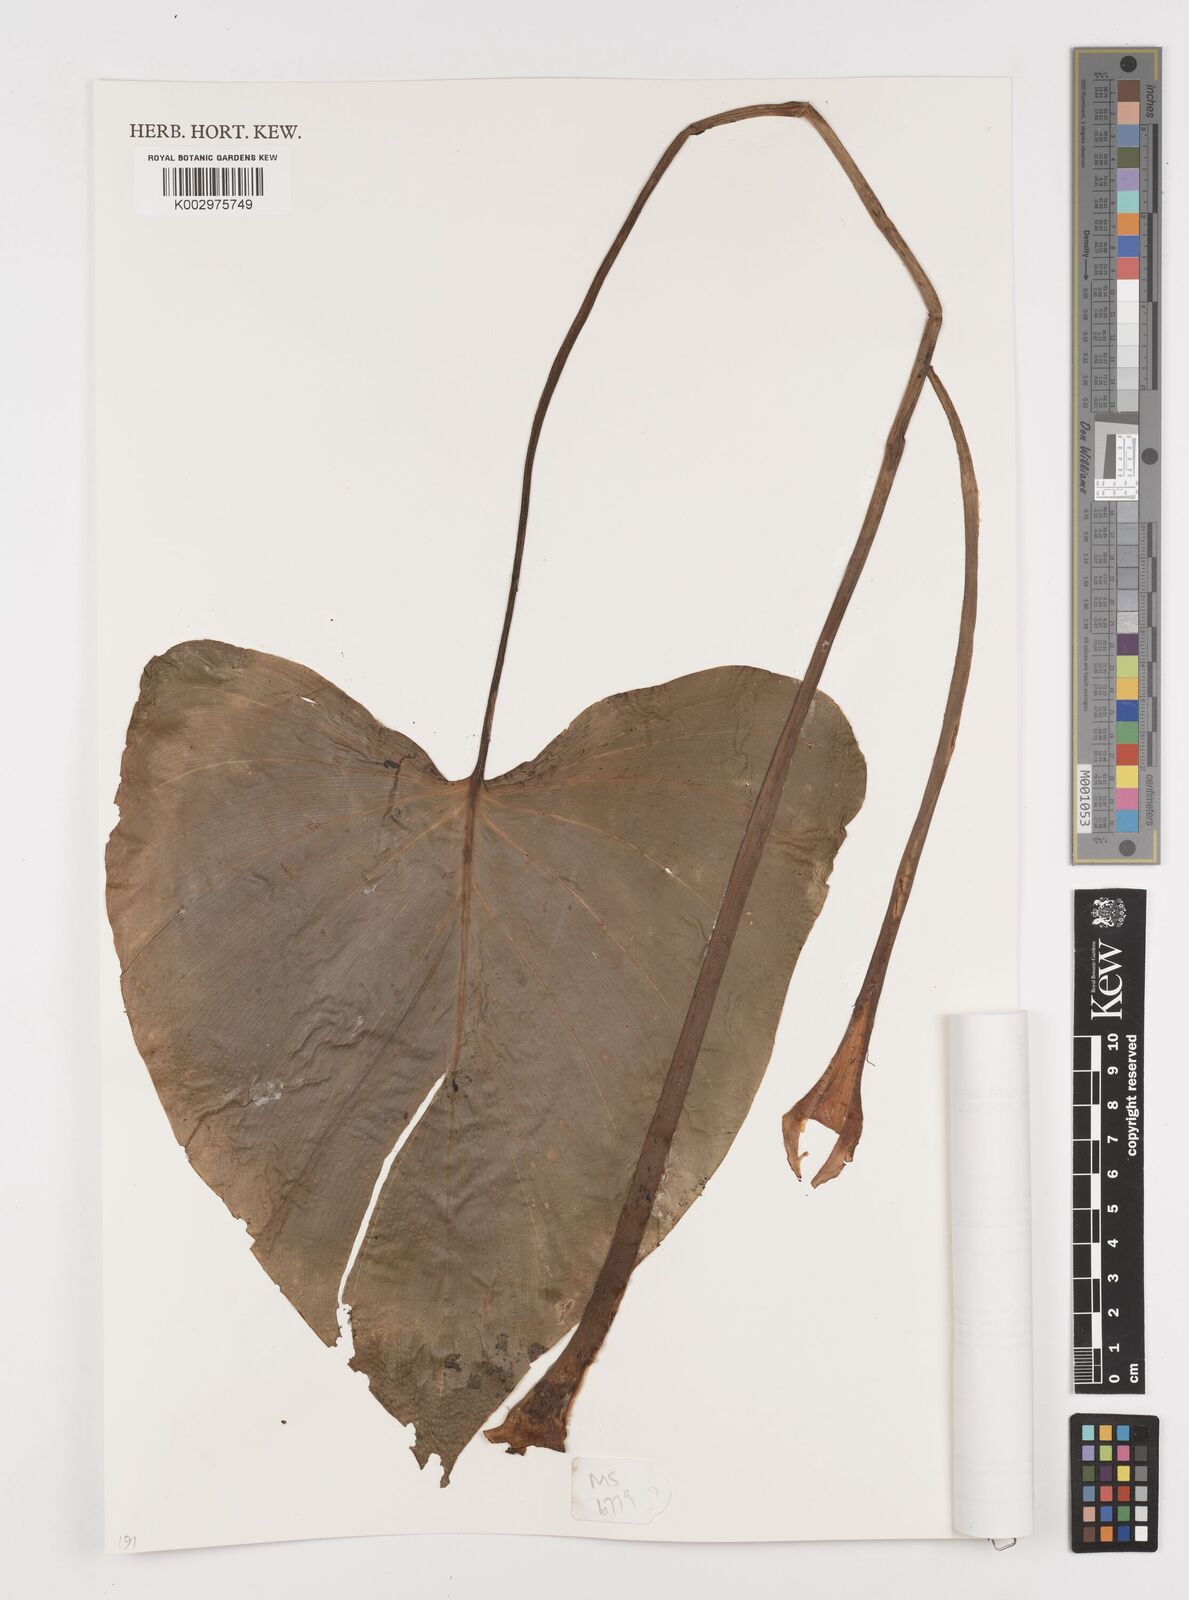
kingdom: Plantae
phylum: Tracheophyta
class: Liliopsida
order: Alismatales
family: Araceae
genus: Homalomena
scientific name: Homalomena
